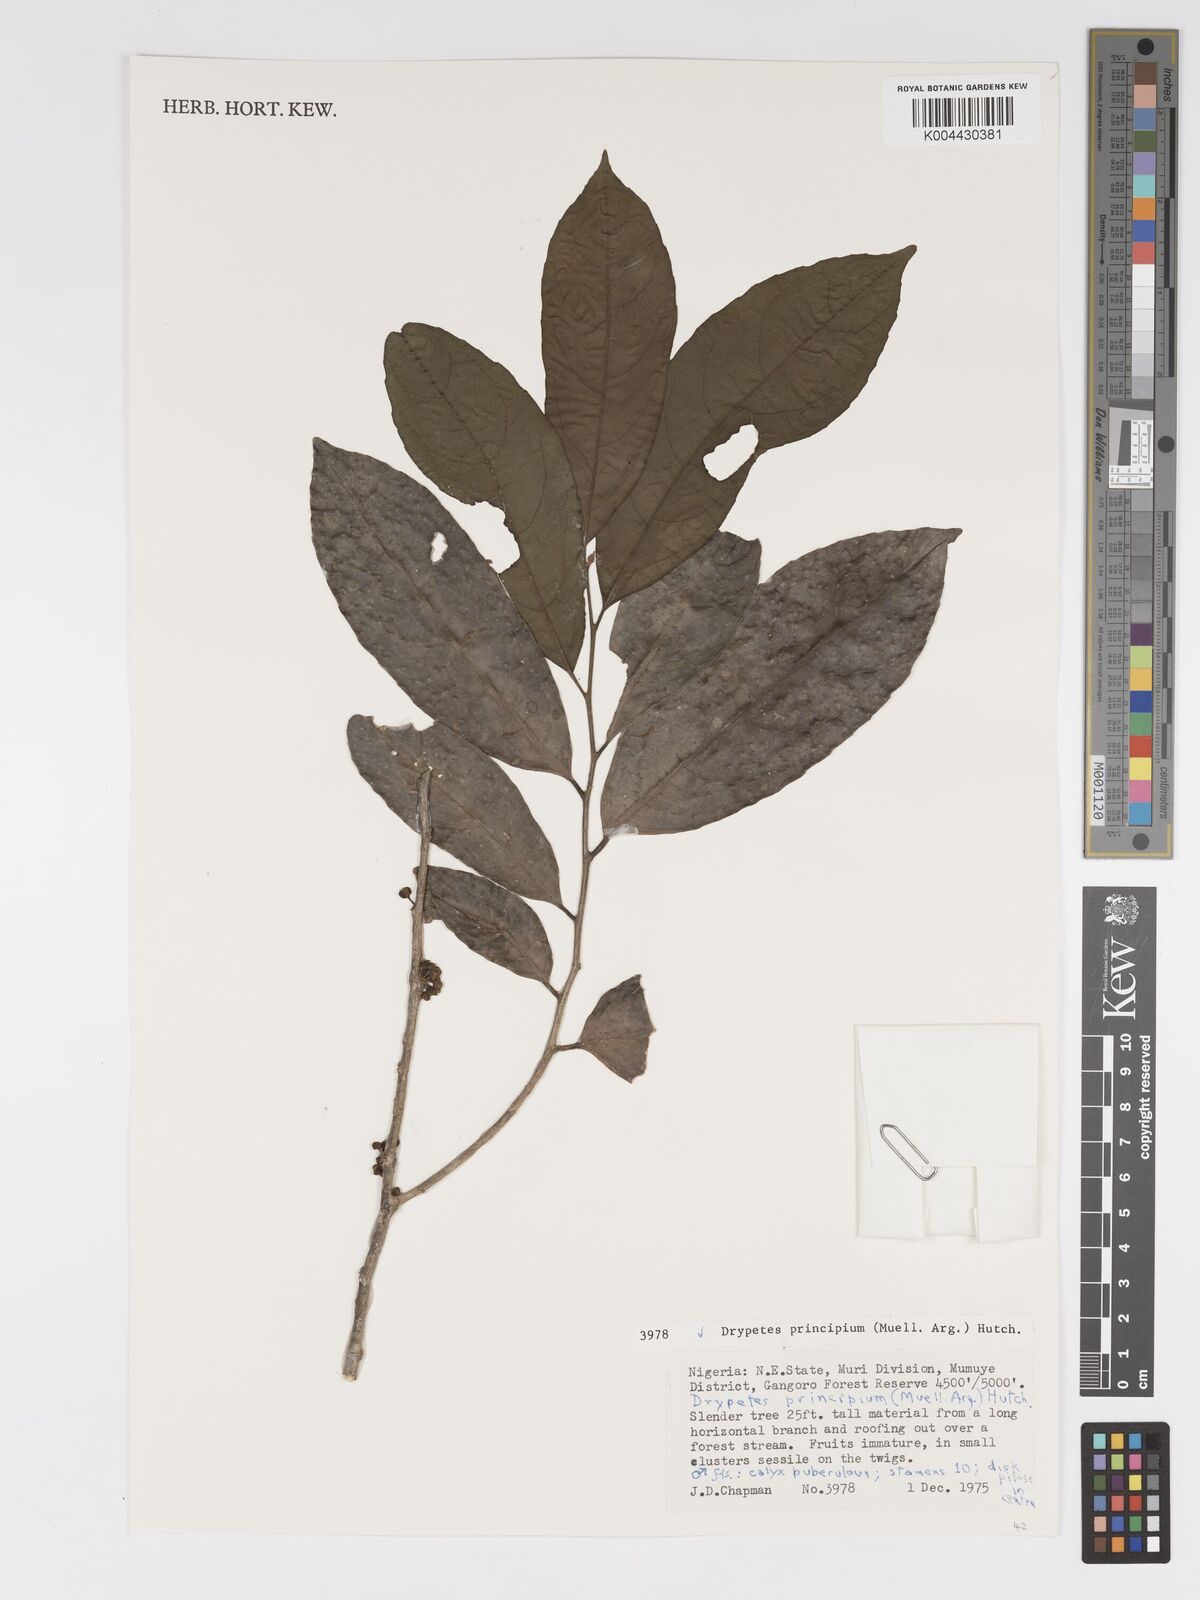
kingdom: Plantae
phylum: Tracheophyta
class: Magnoliopsida
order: Malpighiales
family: Putranjivaceae
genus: Drypetes
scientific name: Drypetes principum
